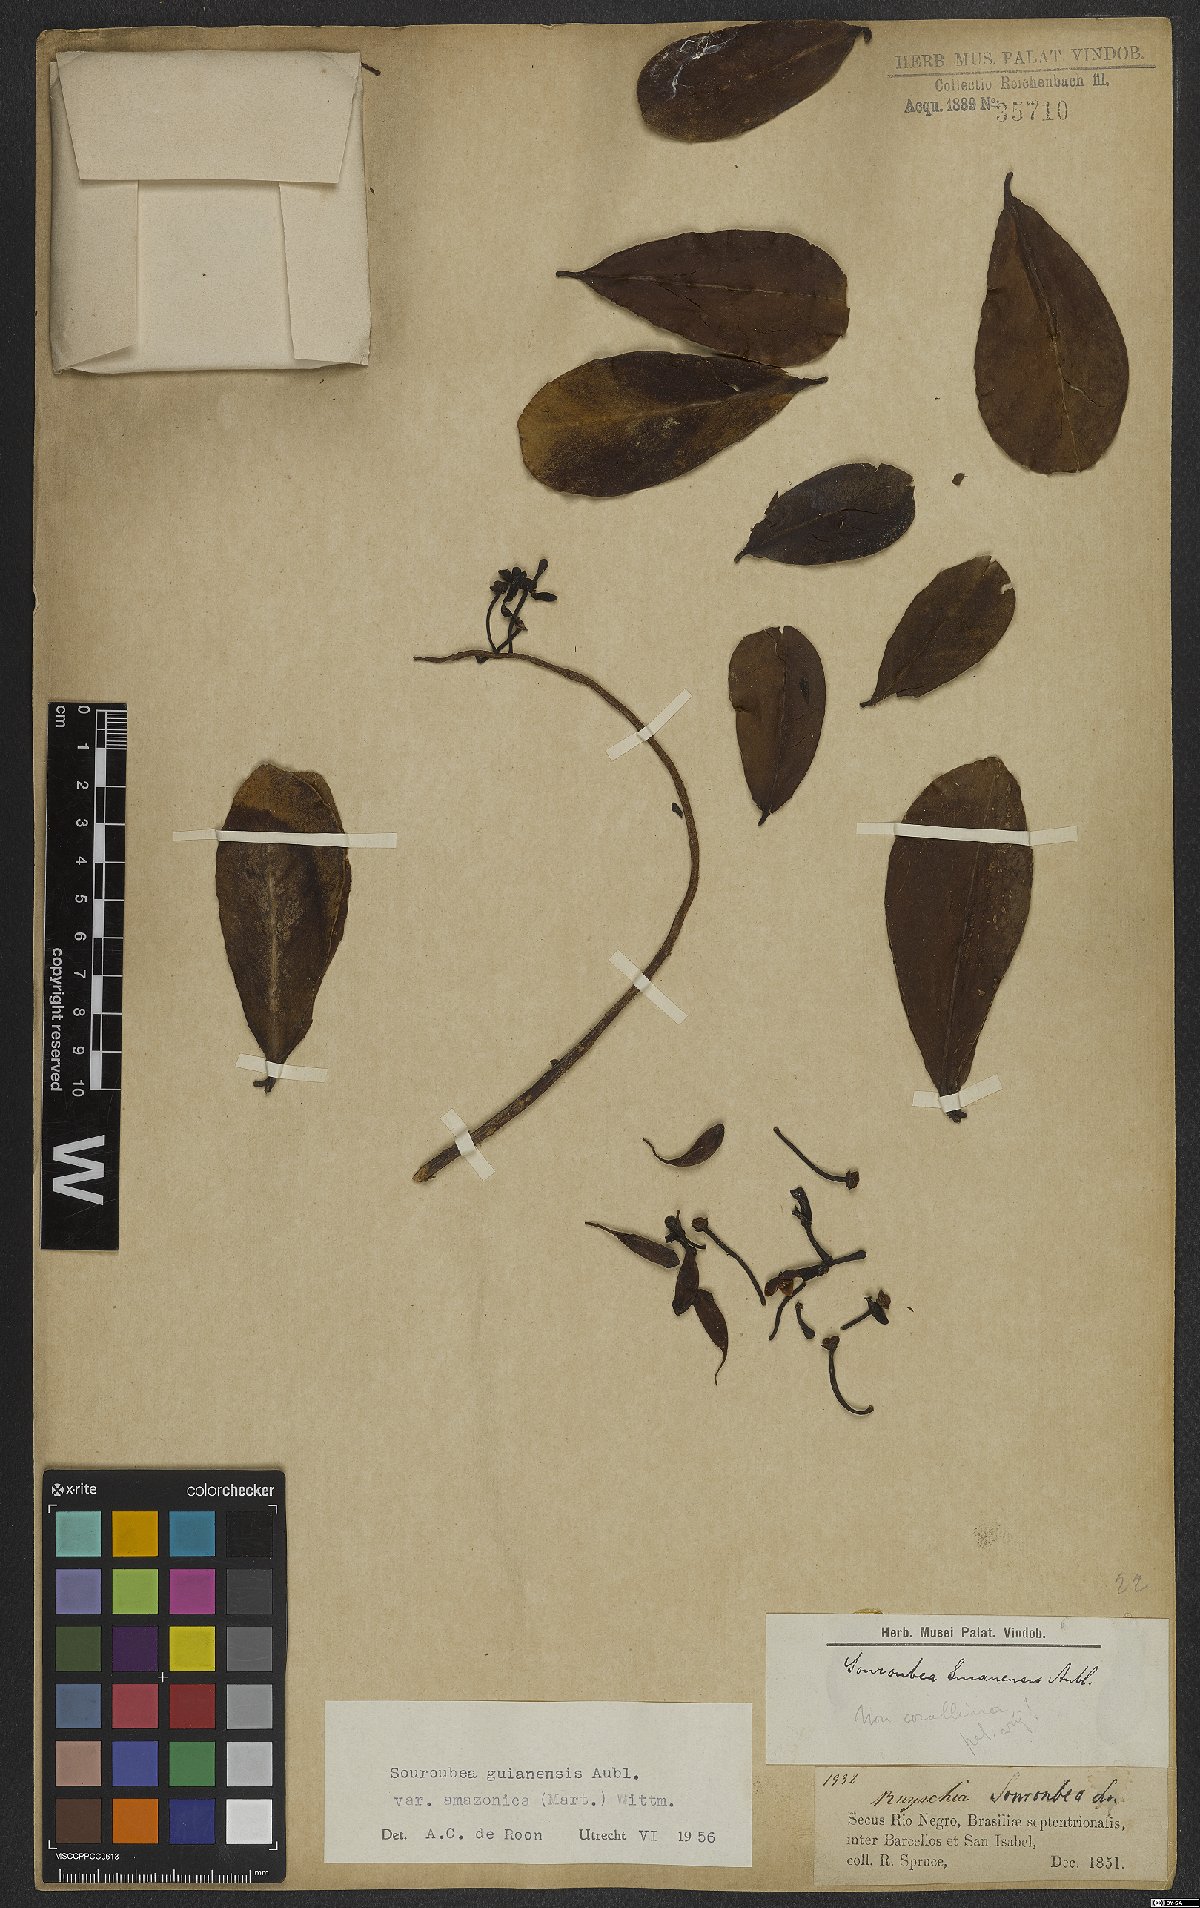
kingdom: Plantae
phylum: Tracheophyta
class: Magnoliopsida
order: Ericales
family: Marcgraviaceae
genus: Souroubea
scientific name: Souroubea guianensis
